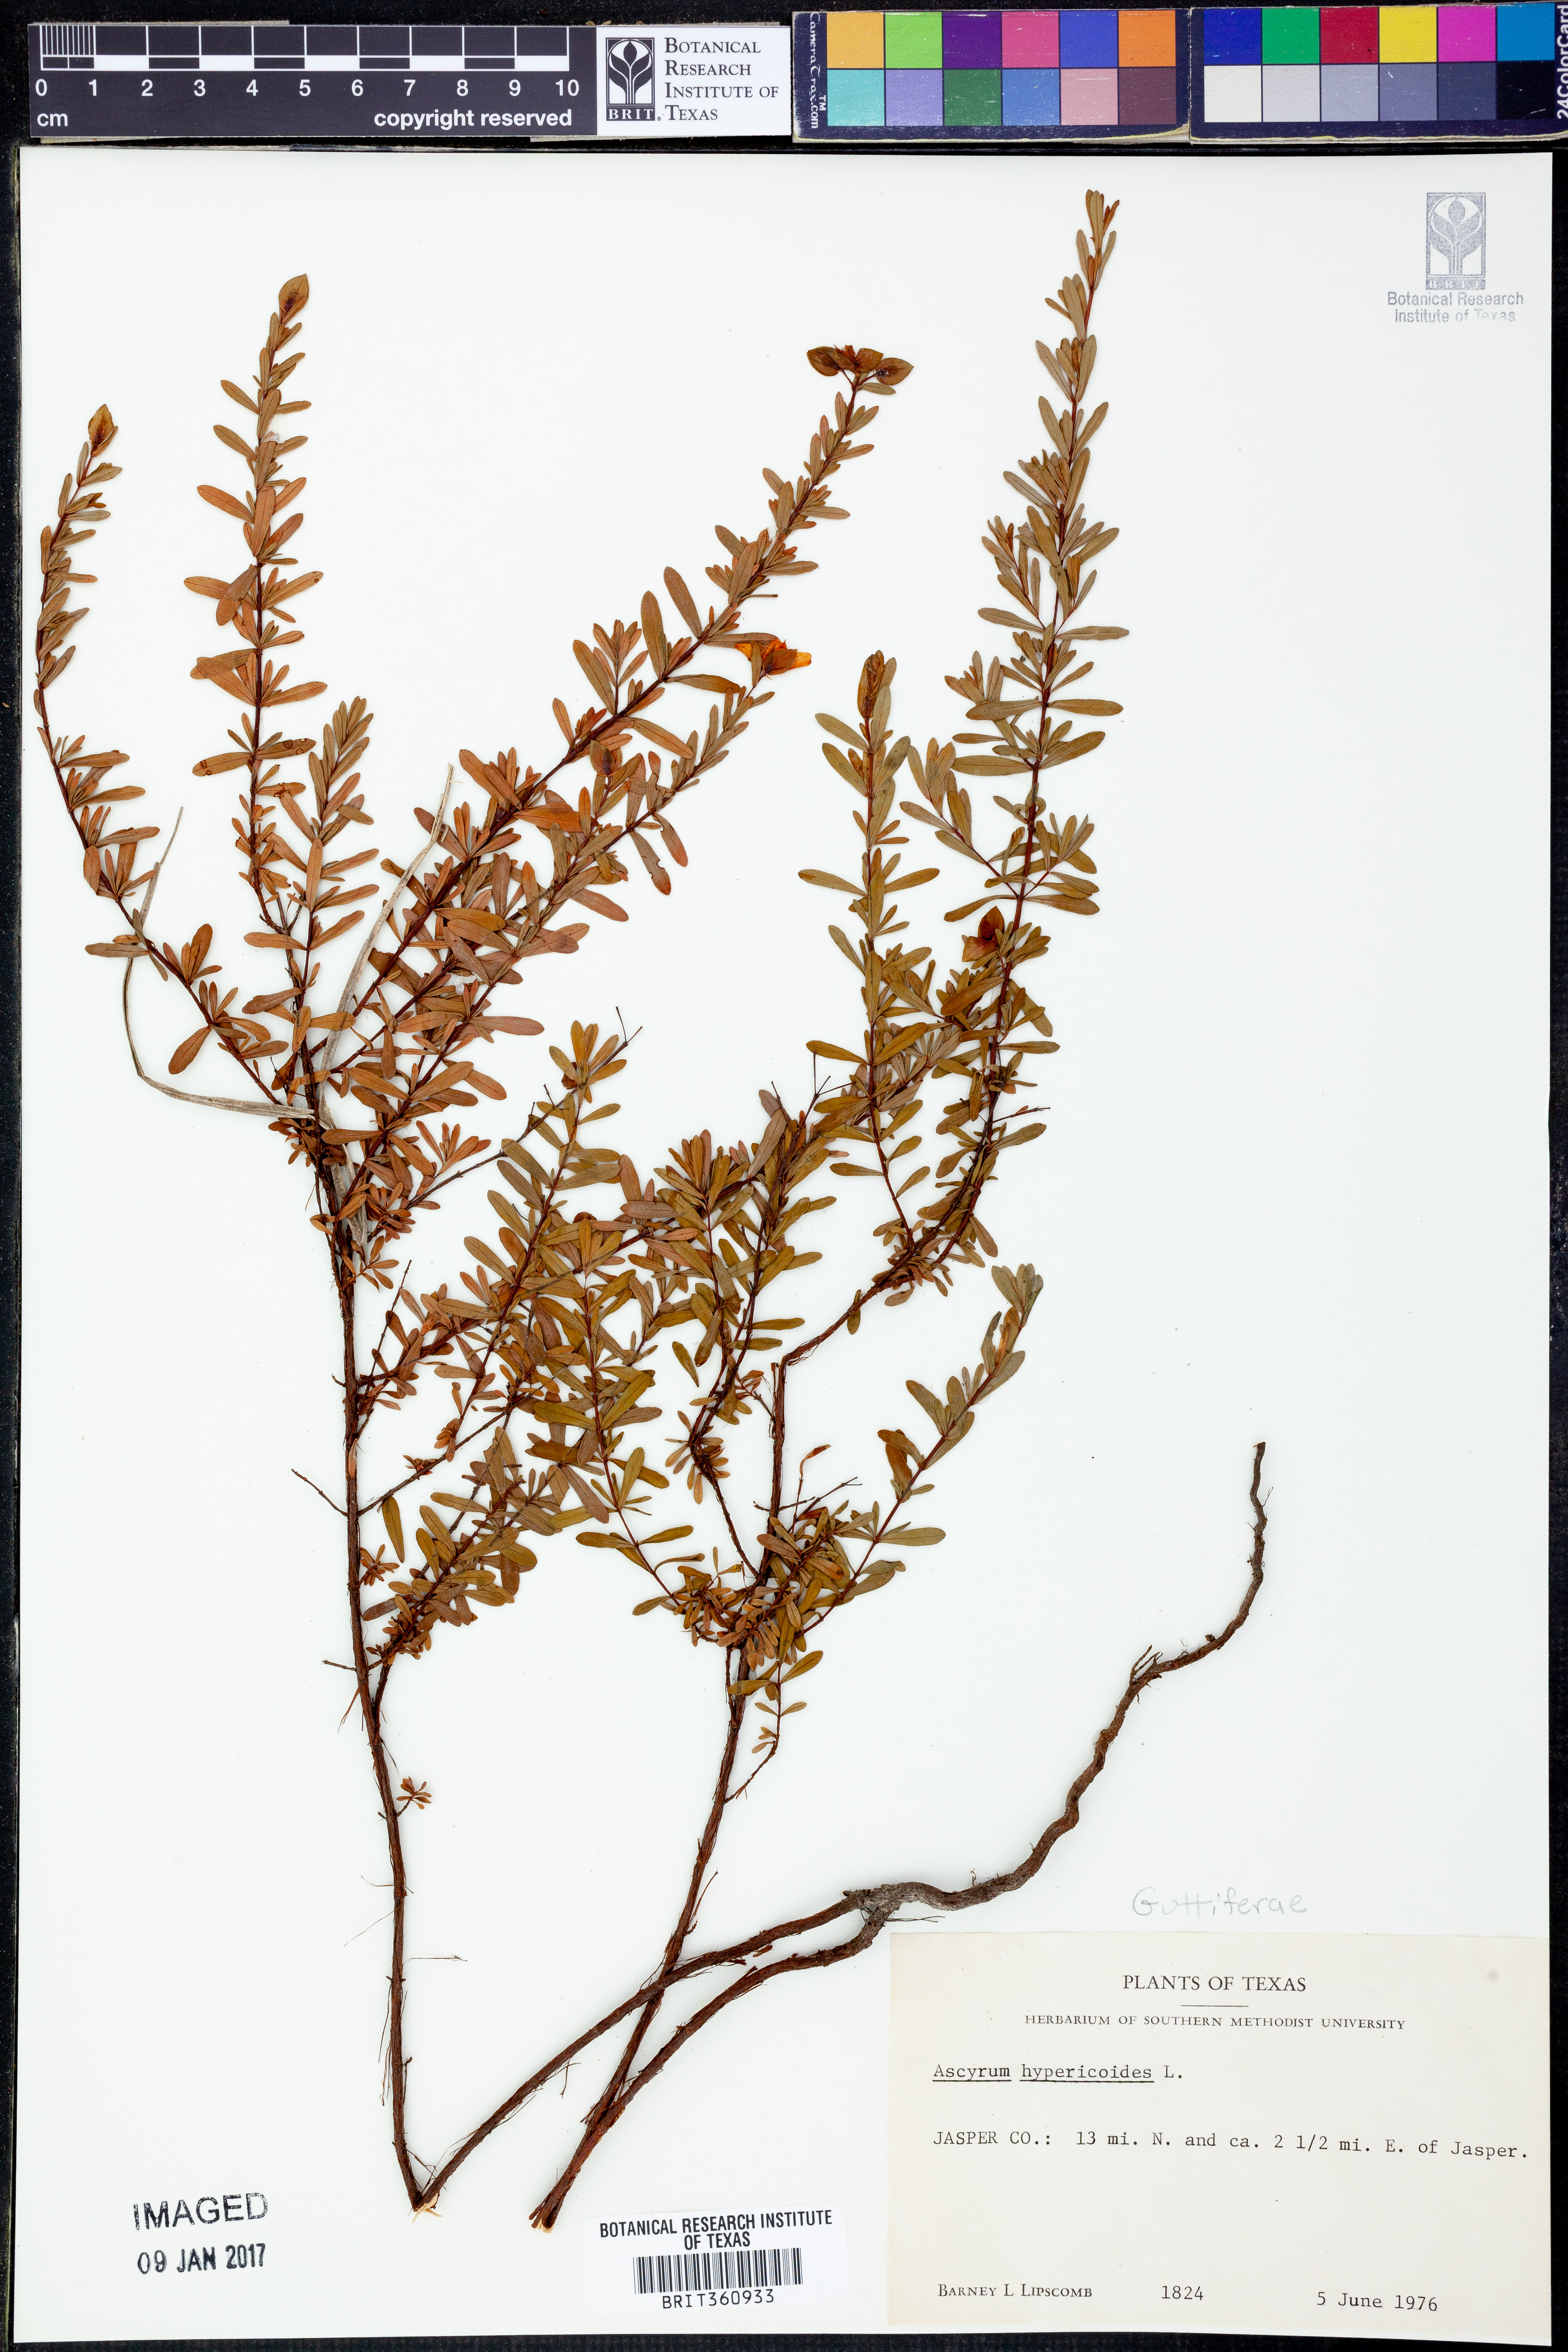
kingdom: Plantae
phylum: Tracheophyta
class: Magnoliopsida
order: Malpighiales
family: Hypericaceae
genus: Hypericum
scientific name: Hypericum hypericoides
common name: St. andrew's cross
